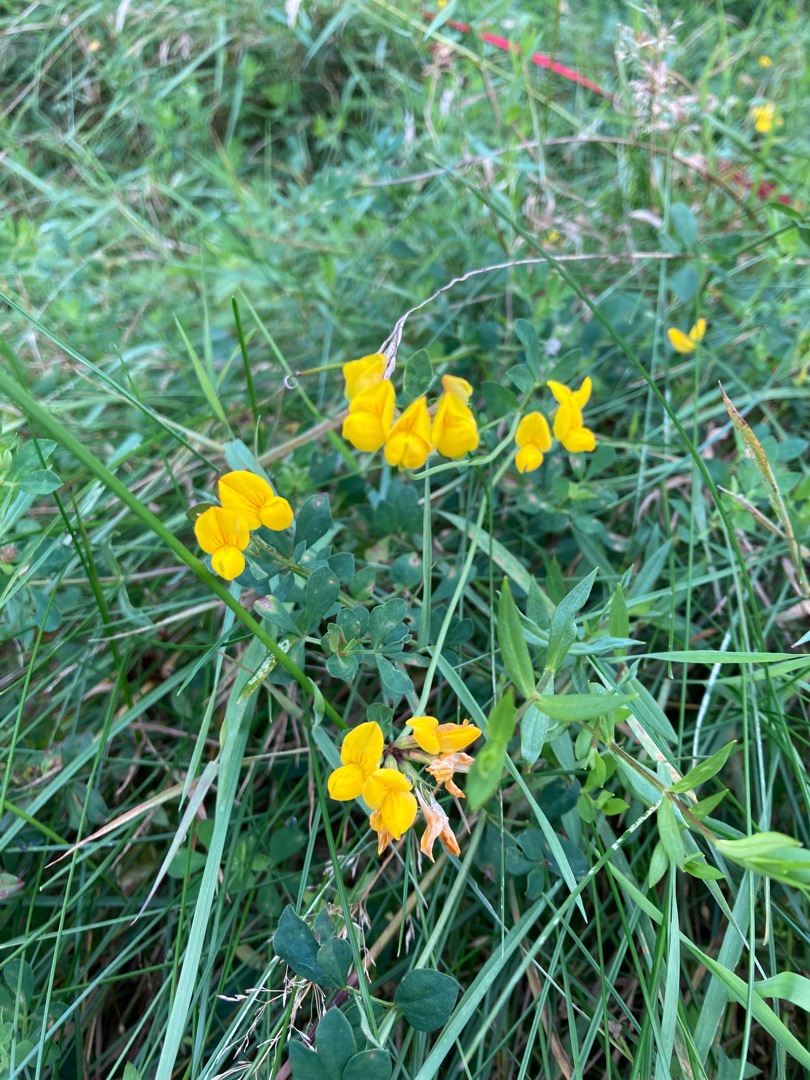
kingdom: Plantae
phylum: Tracheophyta
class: Magnoliopsida
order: Fabales
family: Fabaceae
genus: Lotus
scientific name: Lotus corniculatus
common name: Almindelig kællingetand
